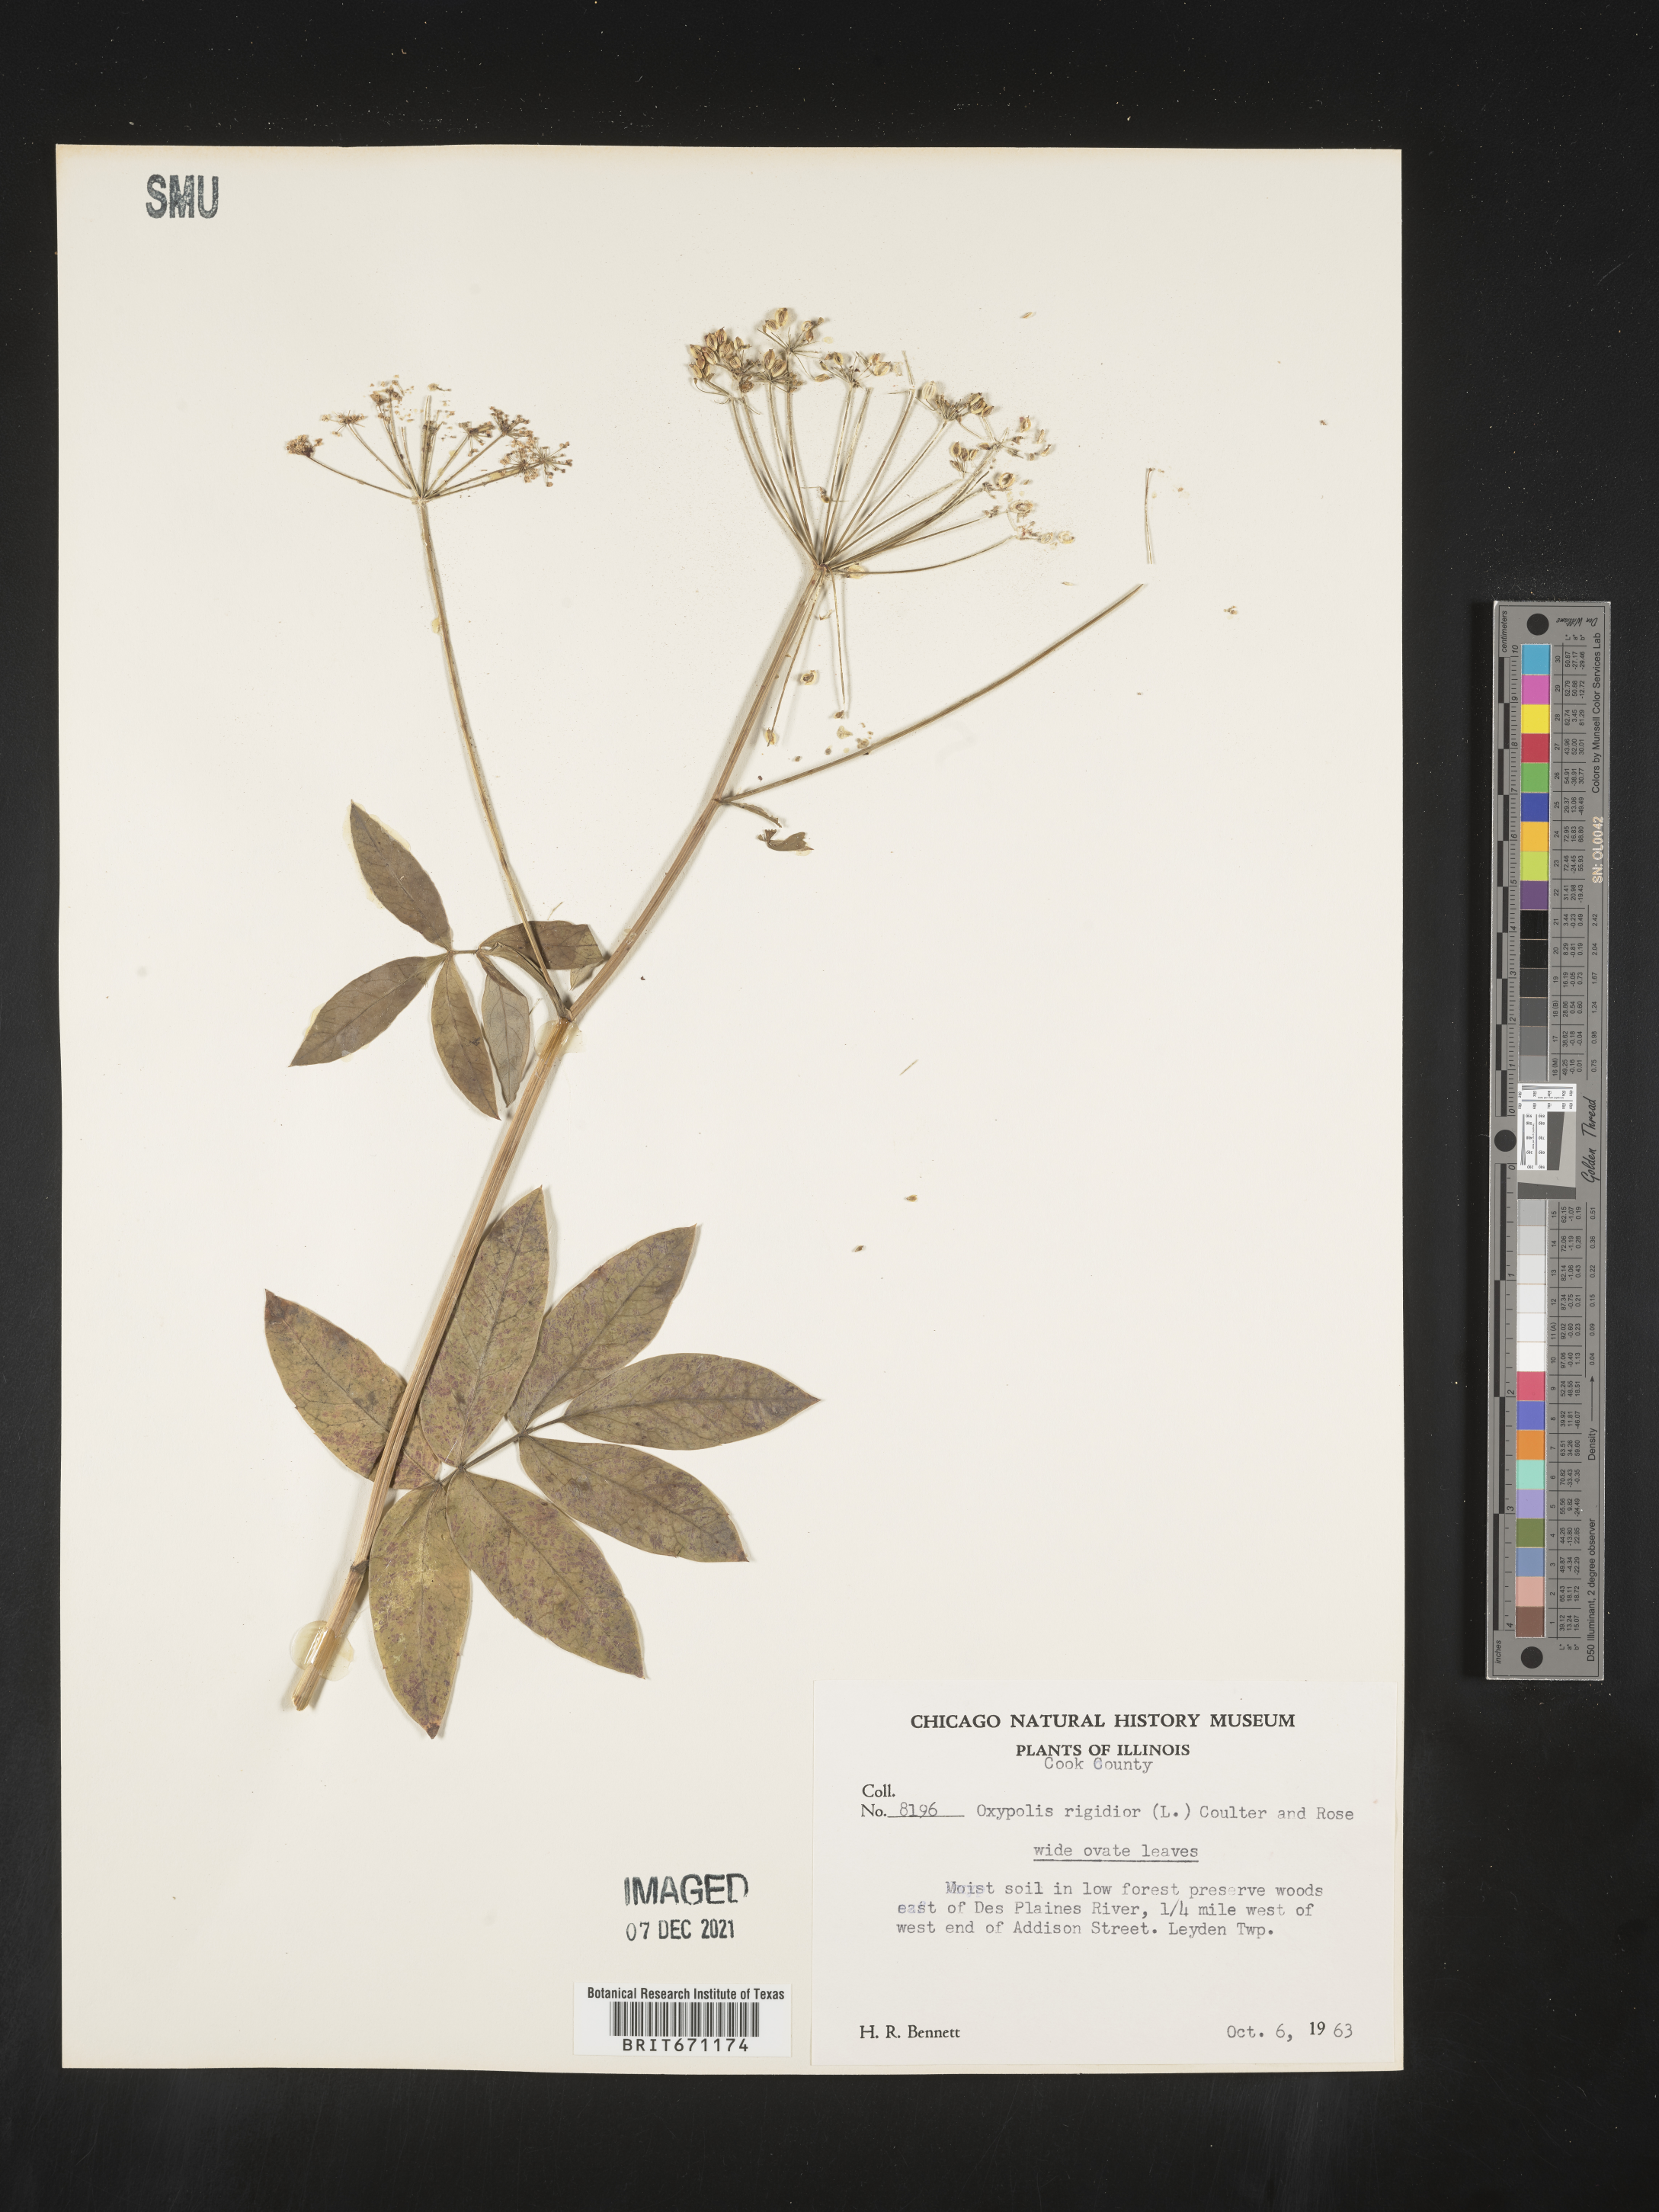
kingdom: Plantae
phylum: Tracheophyta
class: Magnoliopsida
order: Apiales
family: Apiaceae
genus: Oxypolis
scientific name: Oxypolis rigidior
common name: Cowbane
